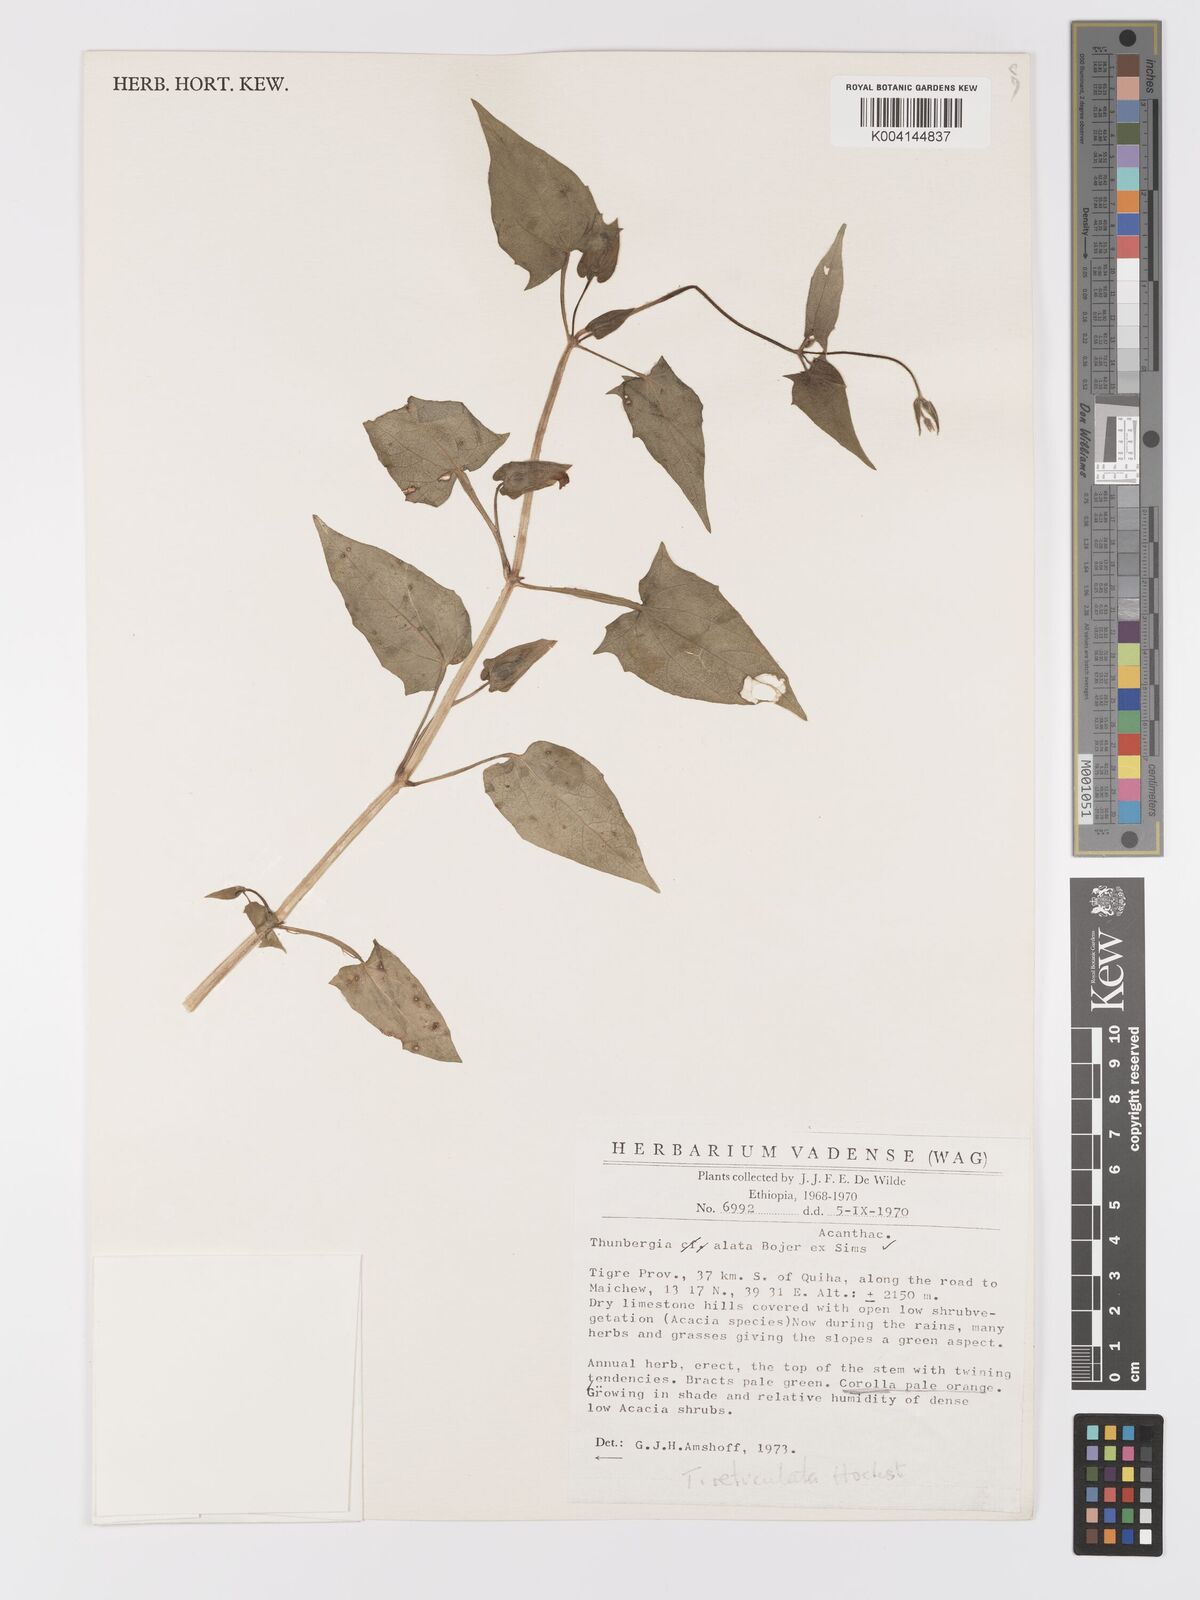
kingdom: Plantae
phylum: Tracheophyta
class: Magnoliopsida
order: Lamiales
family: Acanthaceae
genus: Thunbergia
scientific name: Thunbergia reticulata
